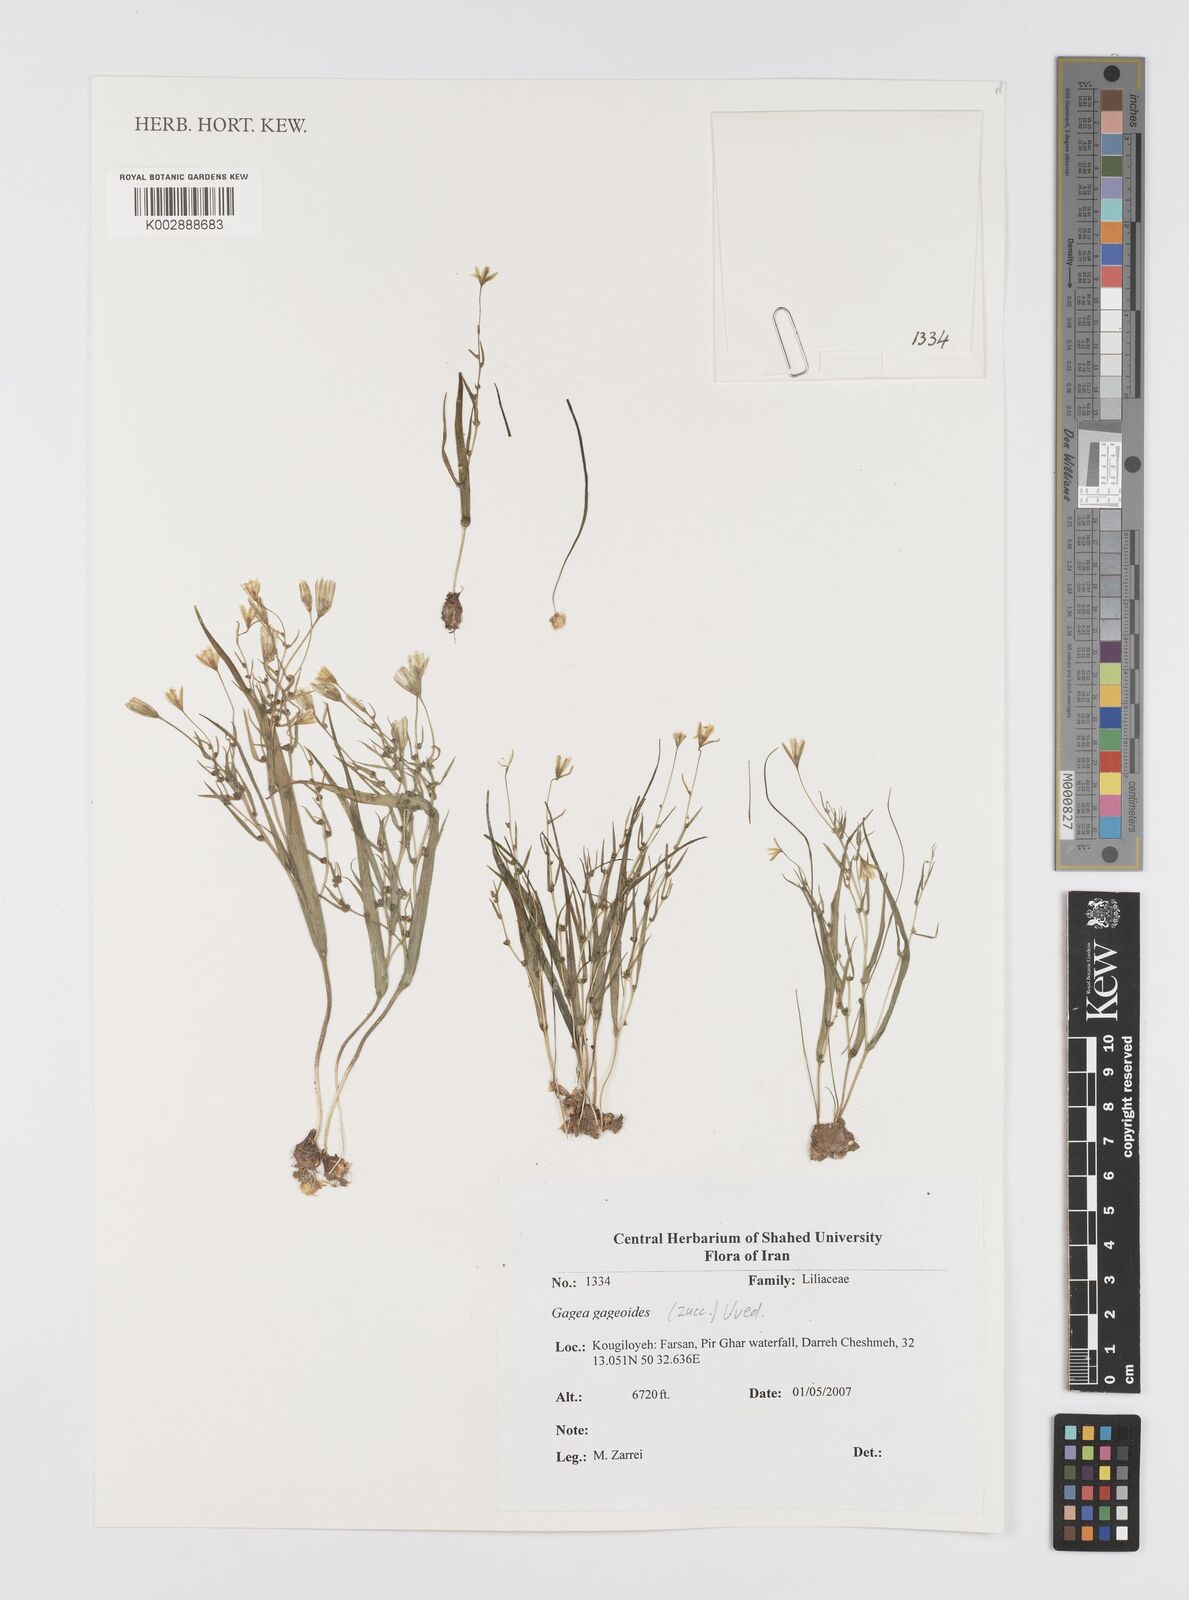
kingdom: Plantae
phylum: Tracheophyta
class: Liliopsida
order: Liliales
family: Liliaceae
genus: Gagea
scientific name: Gagea gageoides
